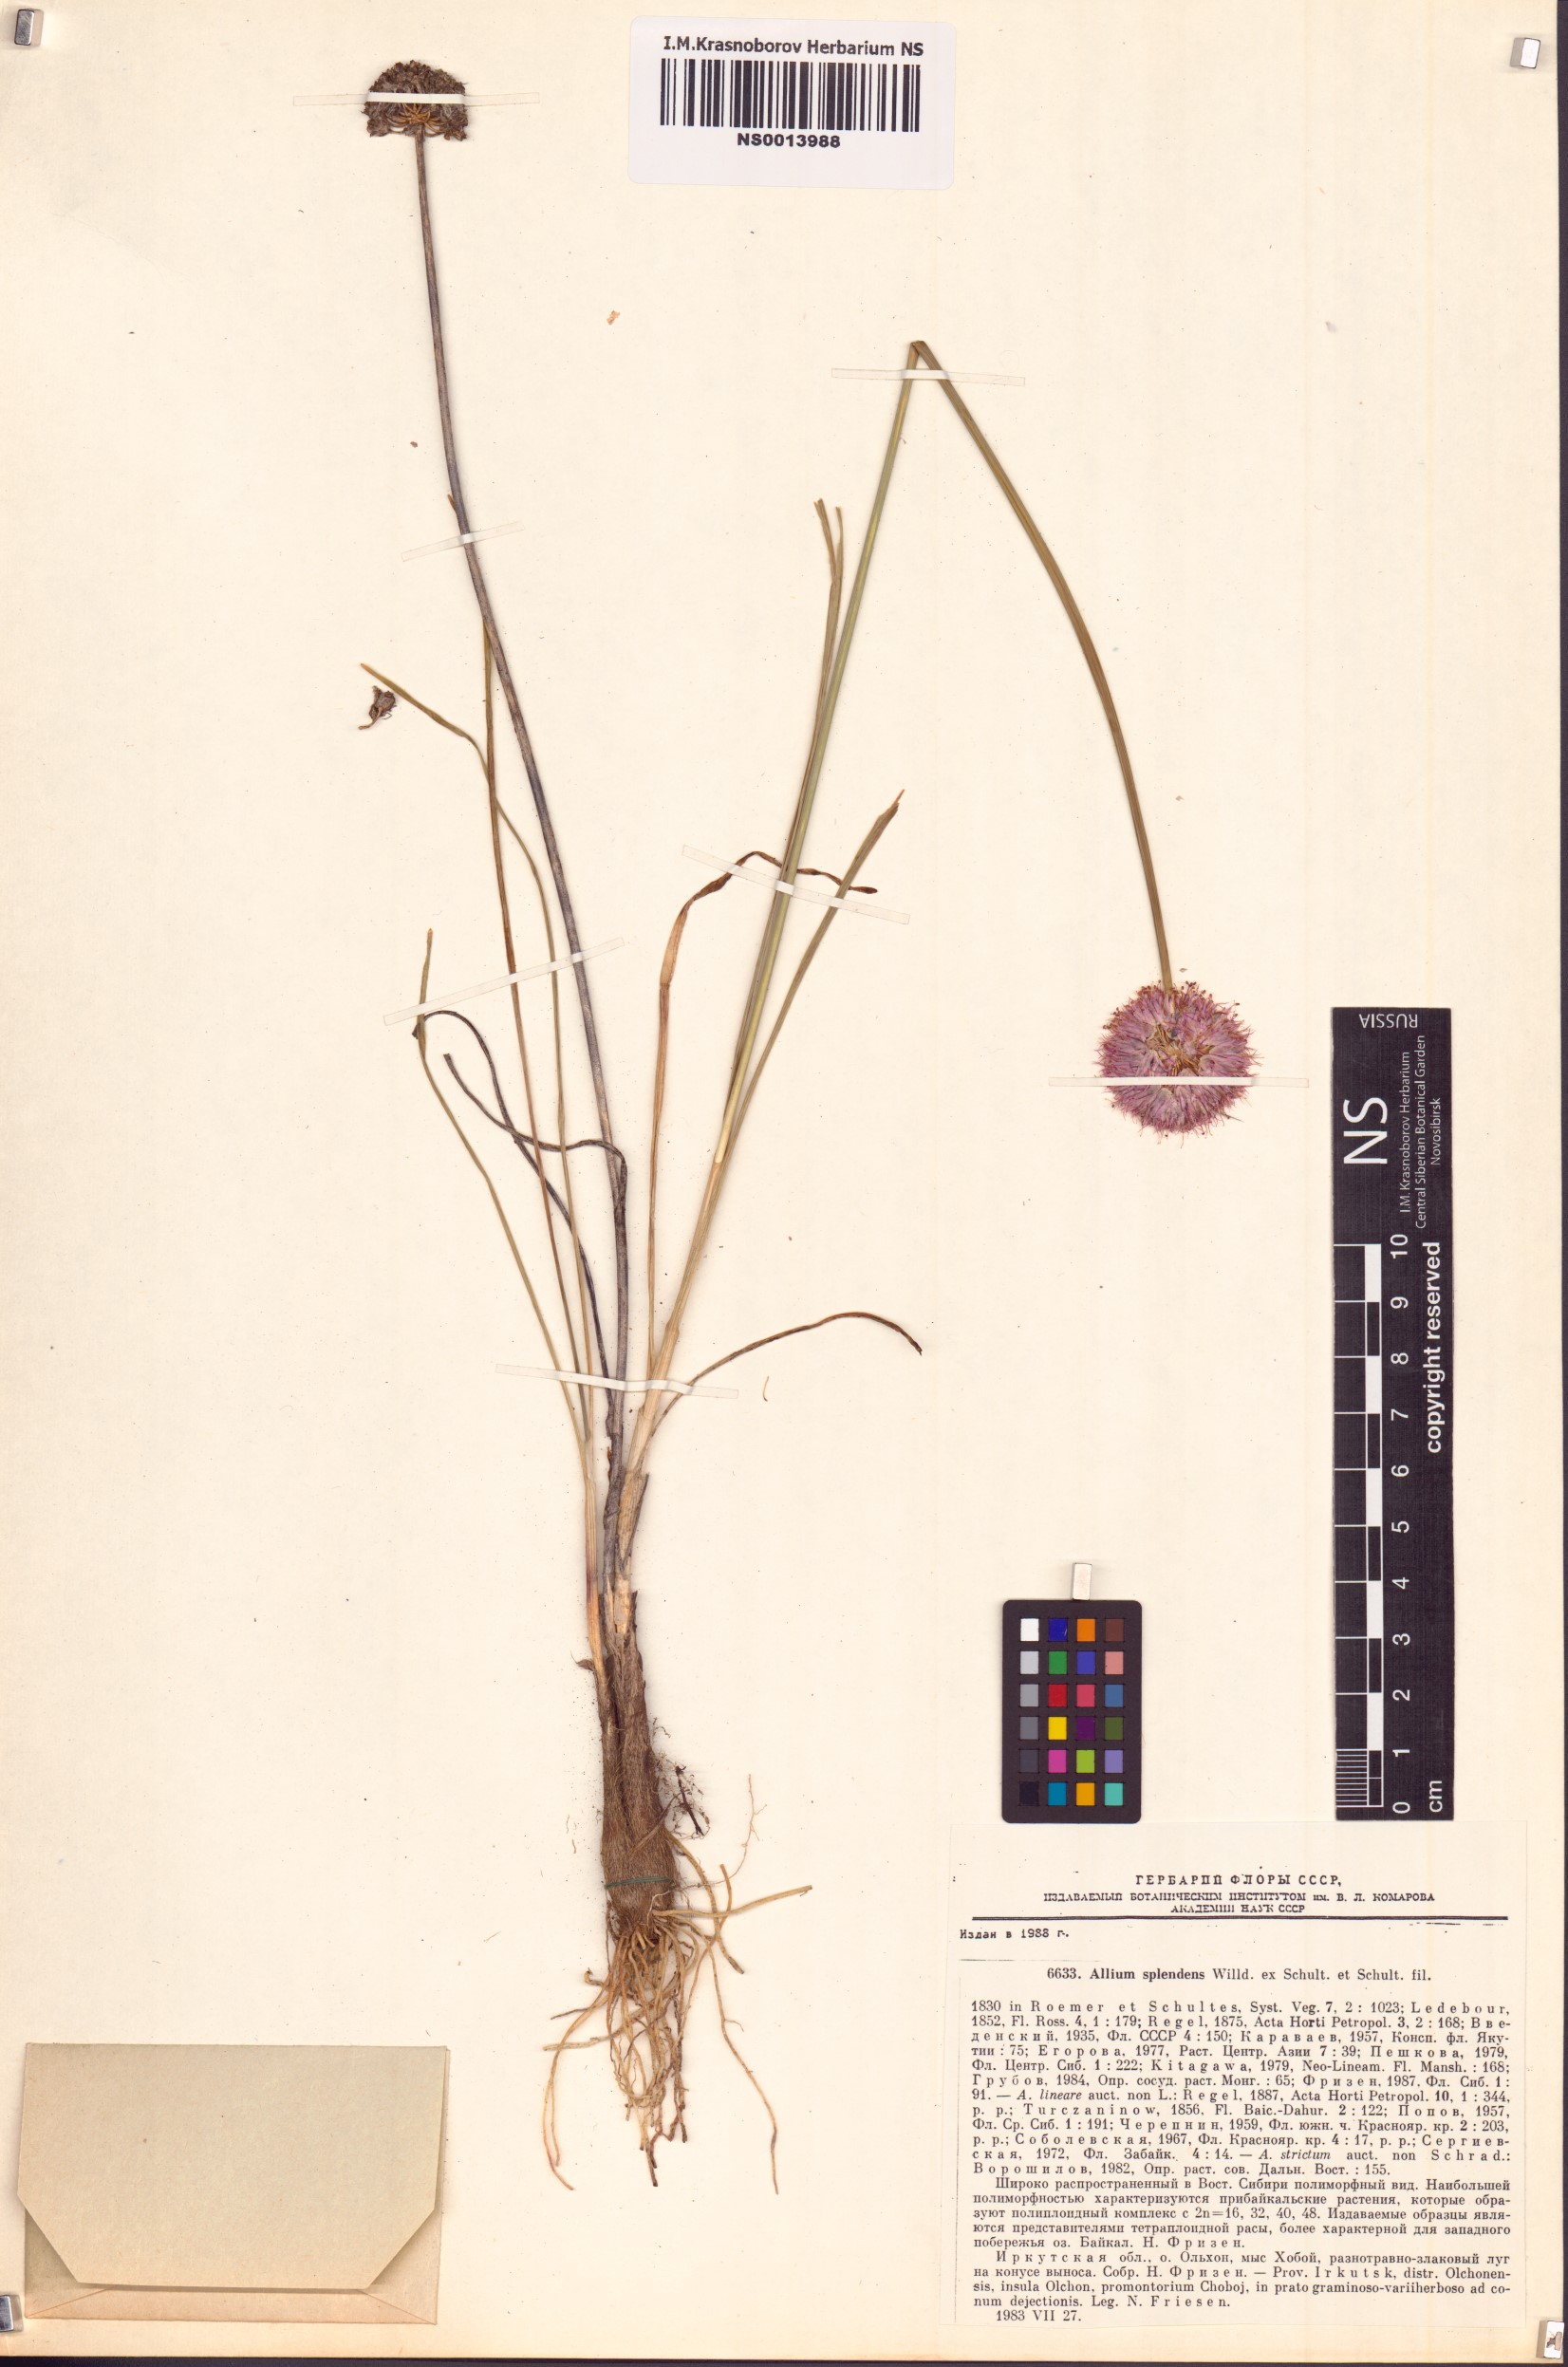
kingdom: Plantae
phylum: Tracheophyta
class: Liliopsida
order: Asparagales
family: Amaryllidaceae
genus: Allium
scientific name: Allium splendens
